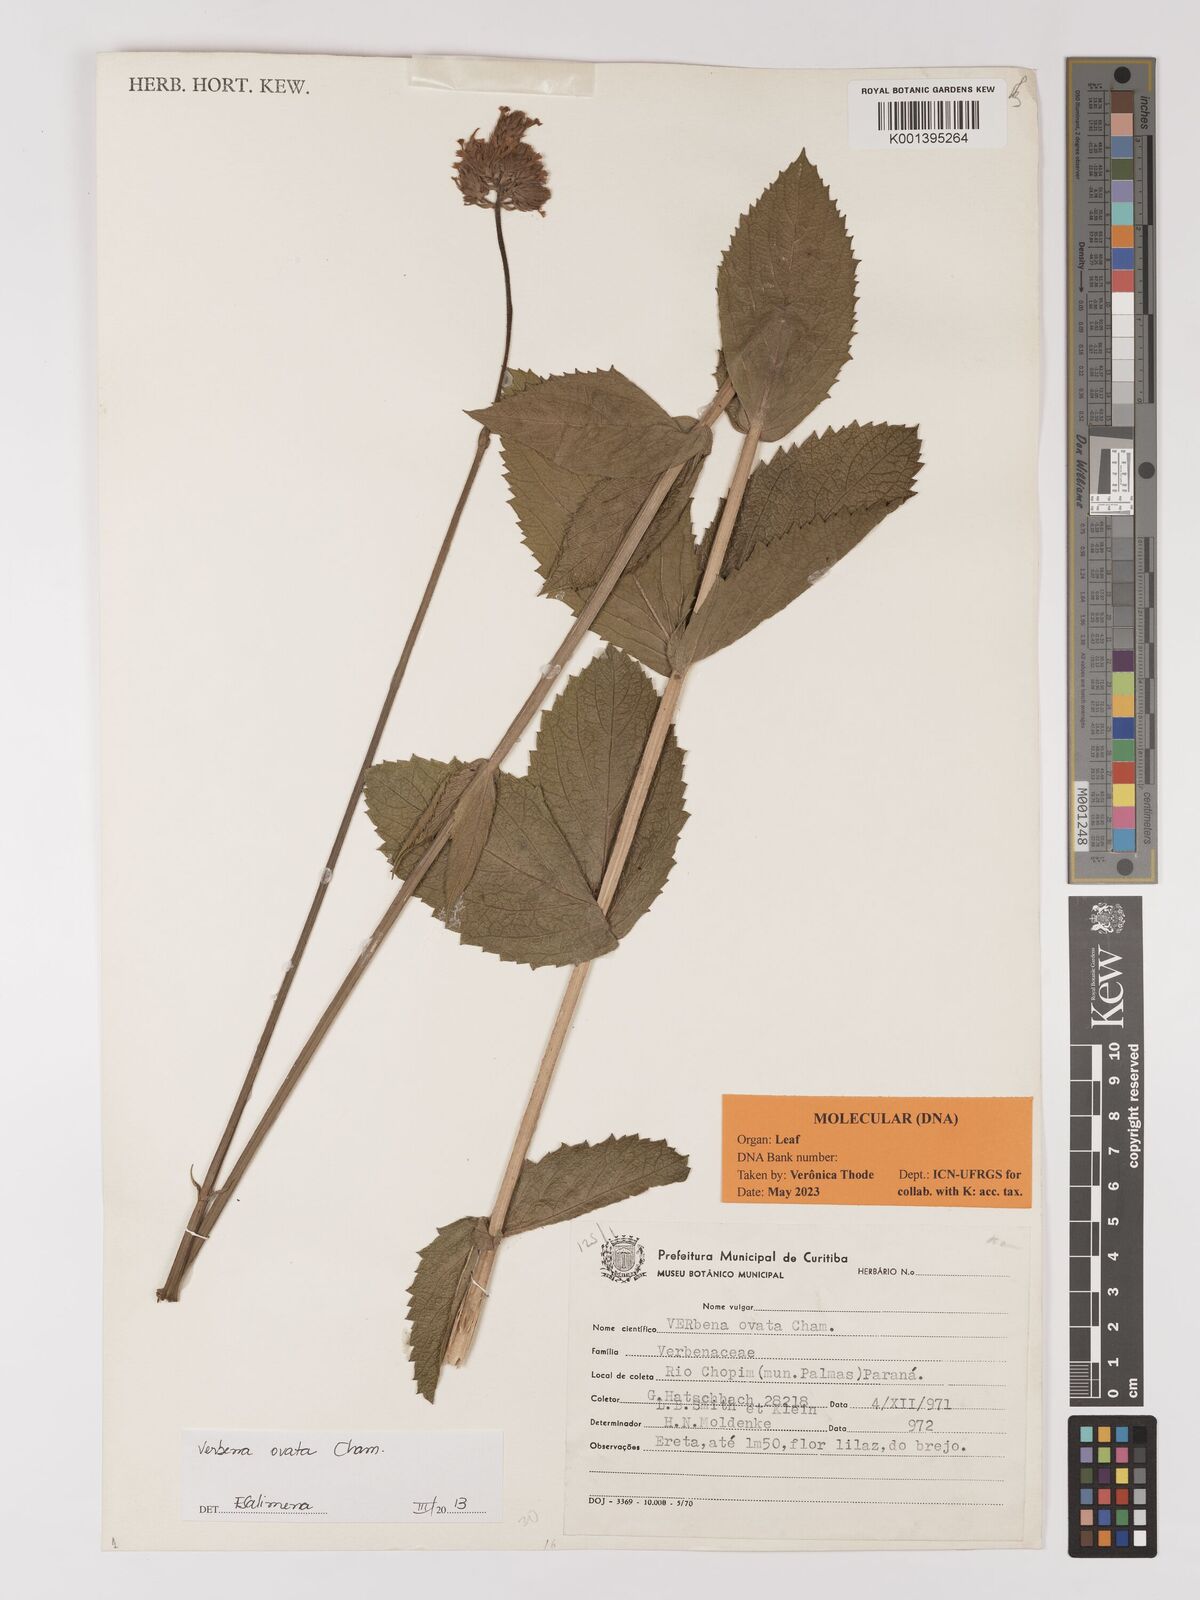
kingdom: Plantae
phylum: Tracheophyta
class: Magnoliopsida
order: Lamiales
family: Verbenaceae
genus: Verbena
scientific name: Verbena ovata
